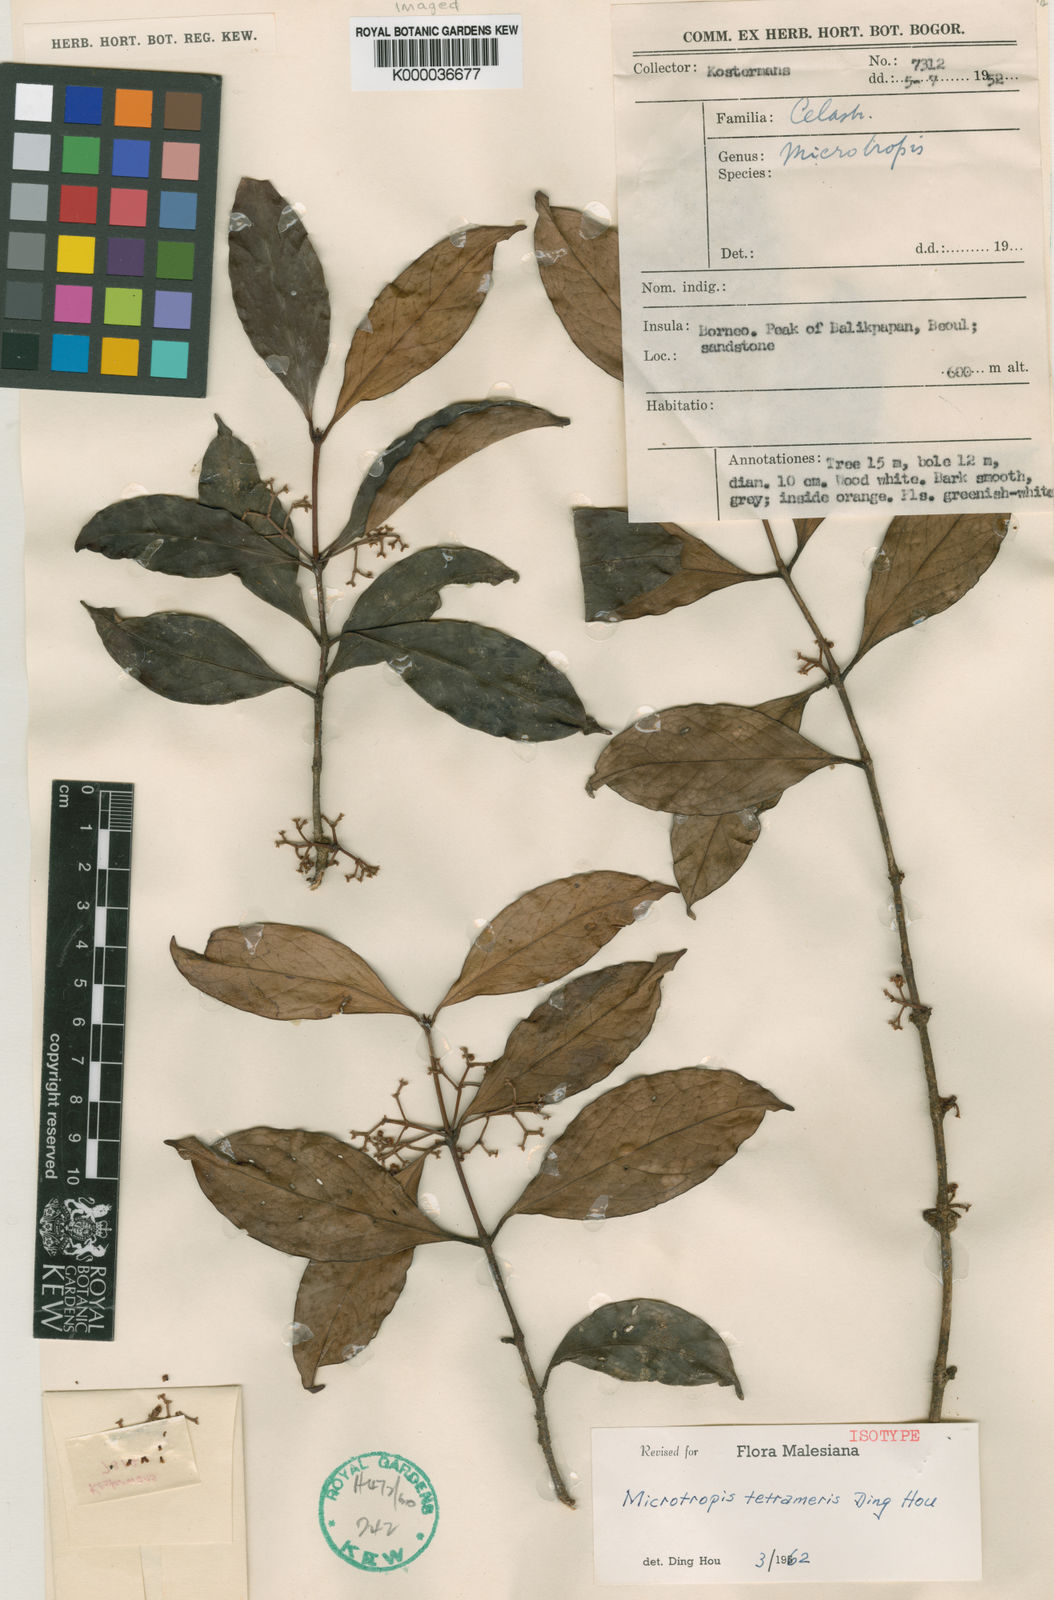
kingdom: Plantae
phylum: Tracheophyta
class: Magnoliopsida
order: Celastrales
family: Celastraceae
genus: Microtropis
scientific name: Microtropis tetrameris
